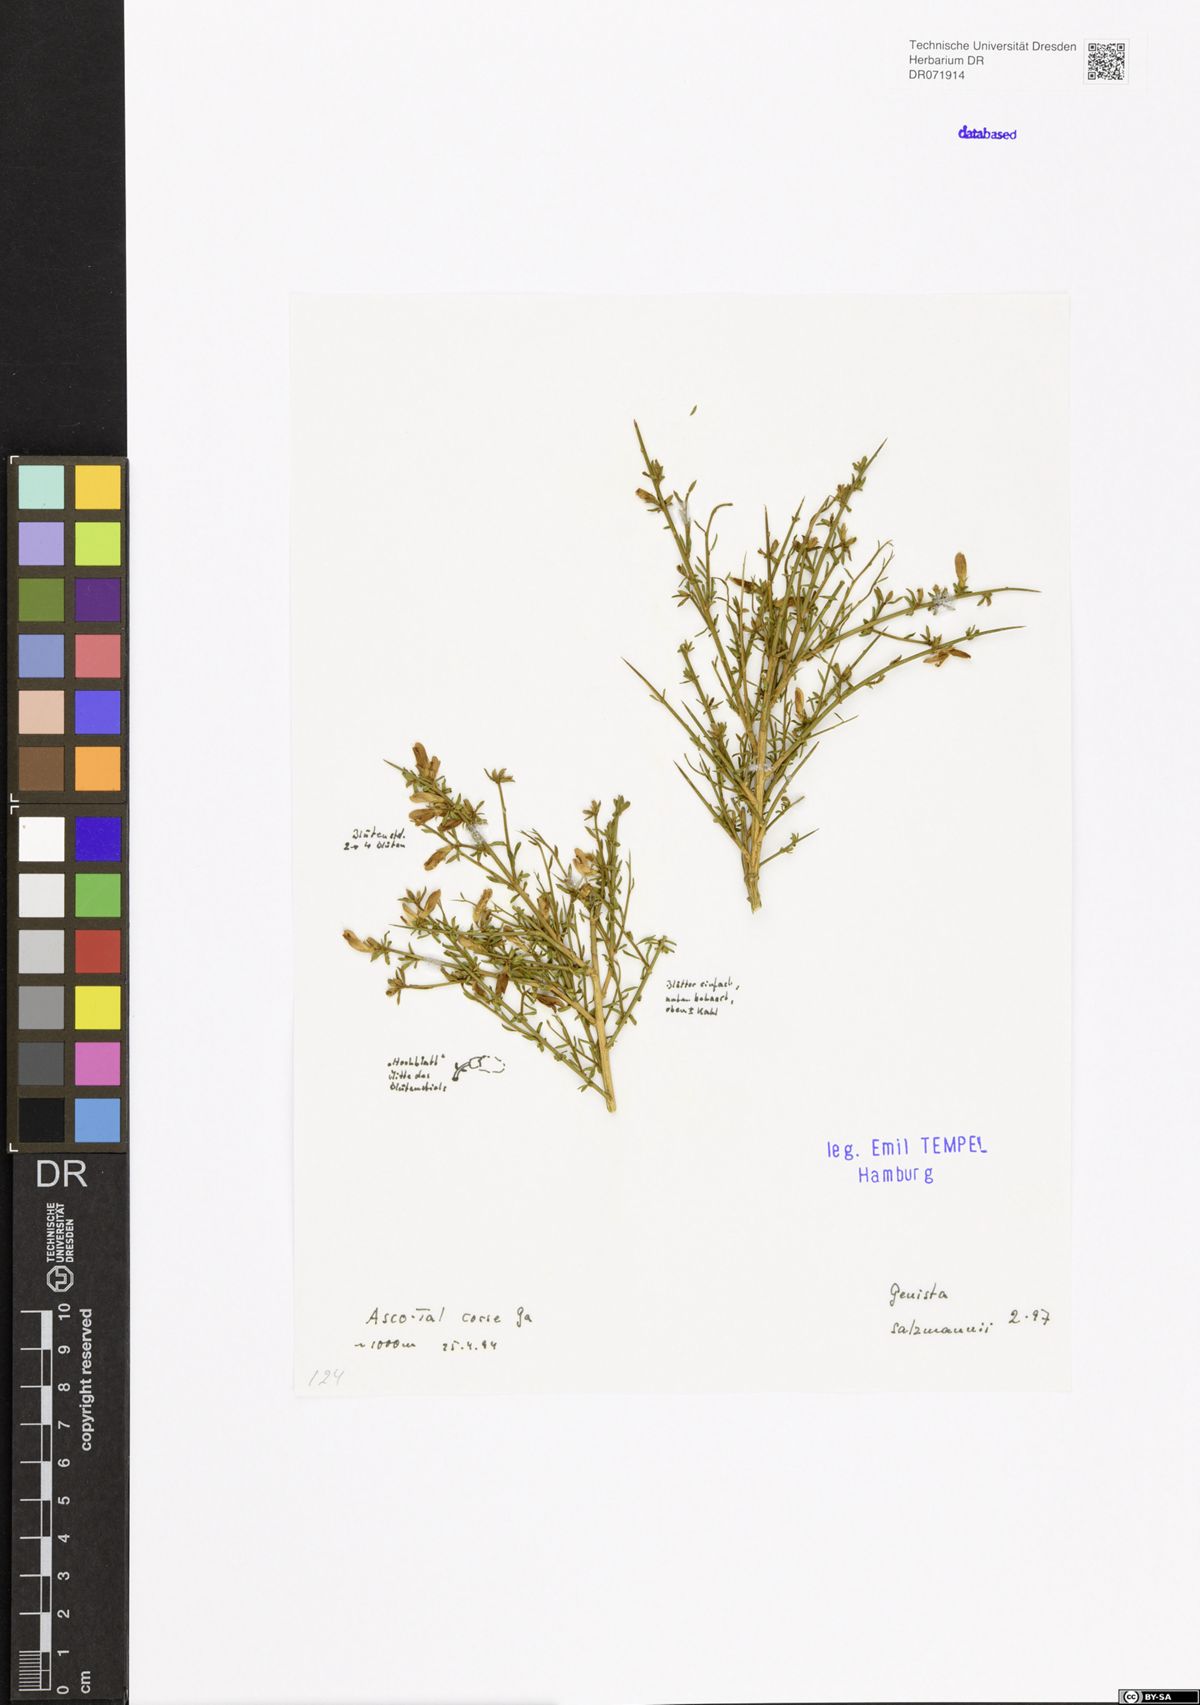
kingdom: Plantae
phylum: Tracheophyta
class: Magnoliopsida
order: Fabales
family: Fabaceae
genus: Genista
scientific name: Genista salzmannii
